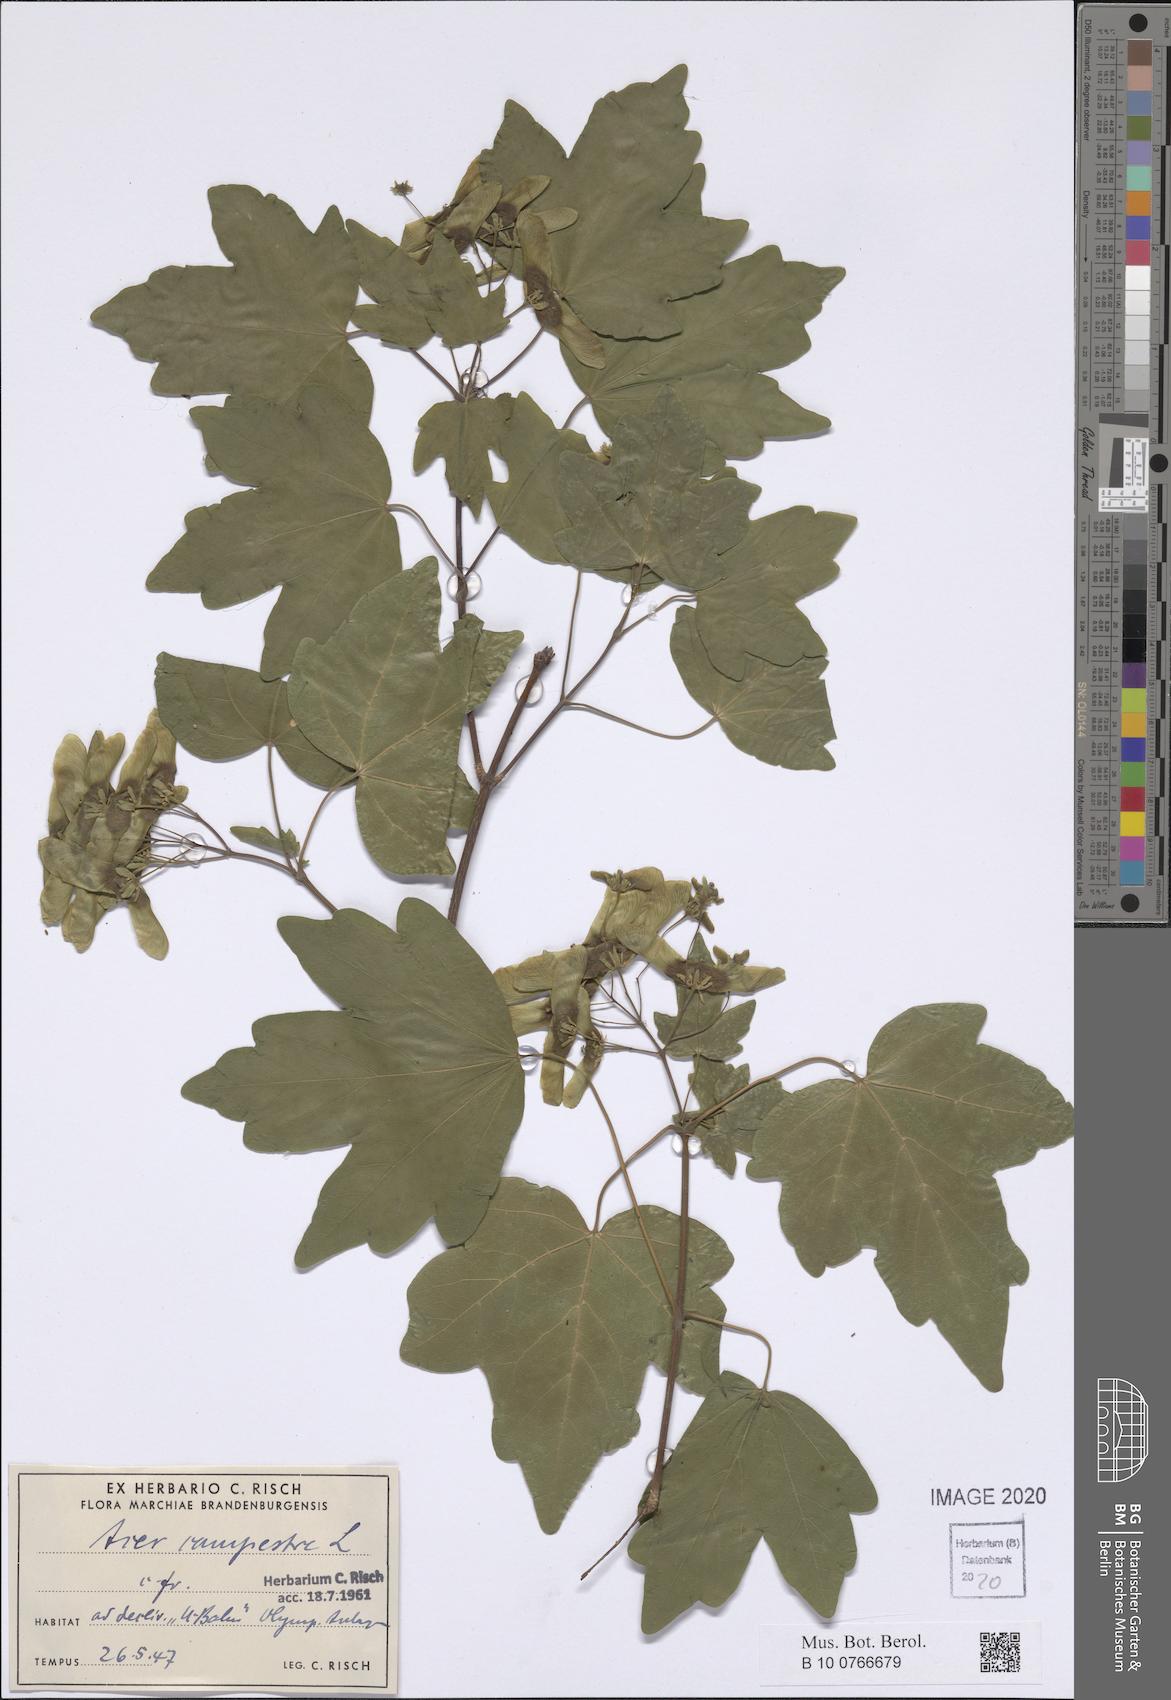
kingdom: Plantae
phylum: Tracheophyta
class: Magnoliopsida
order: Sapindales
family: Sapindaceae
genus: Acer
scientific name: Acer campestre
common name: Field maple
